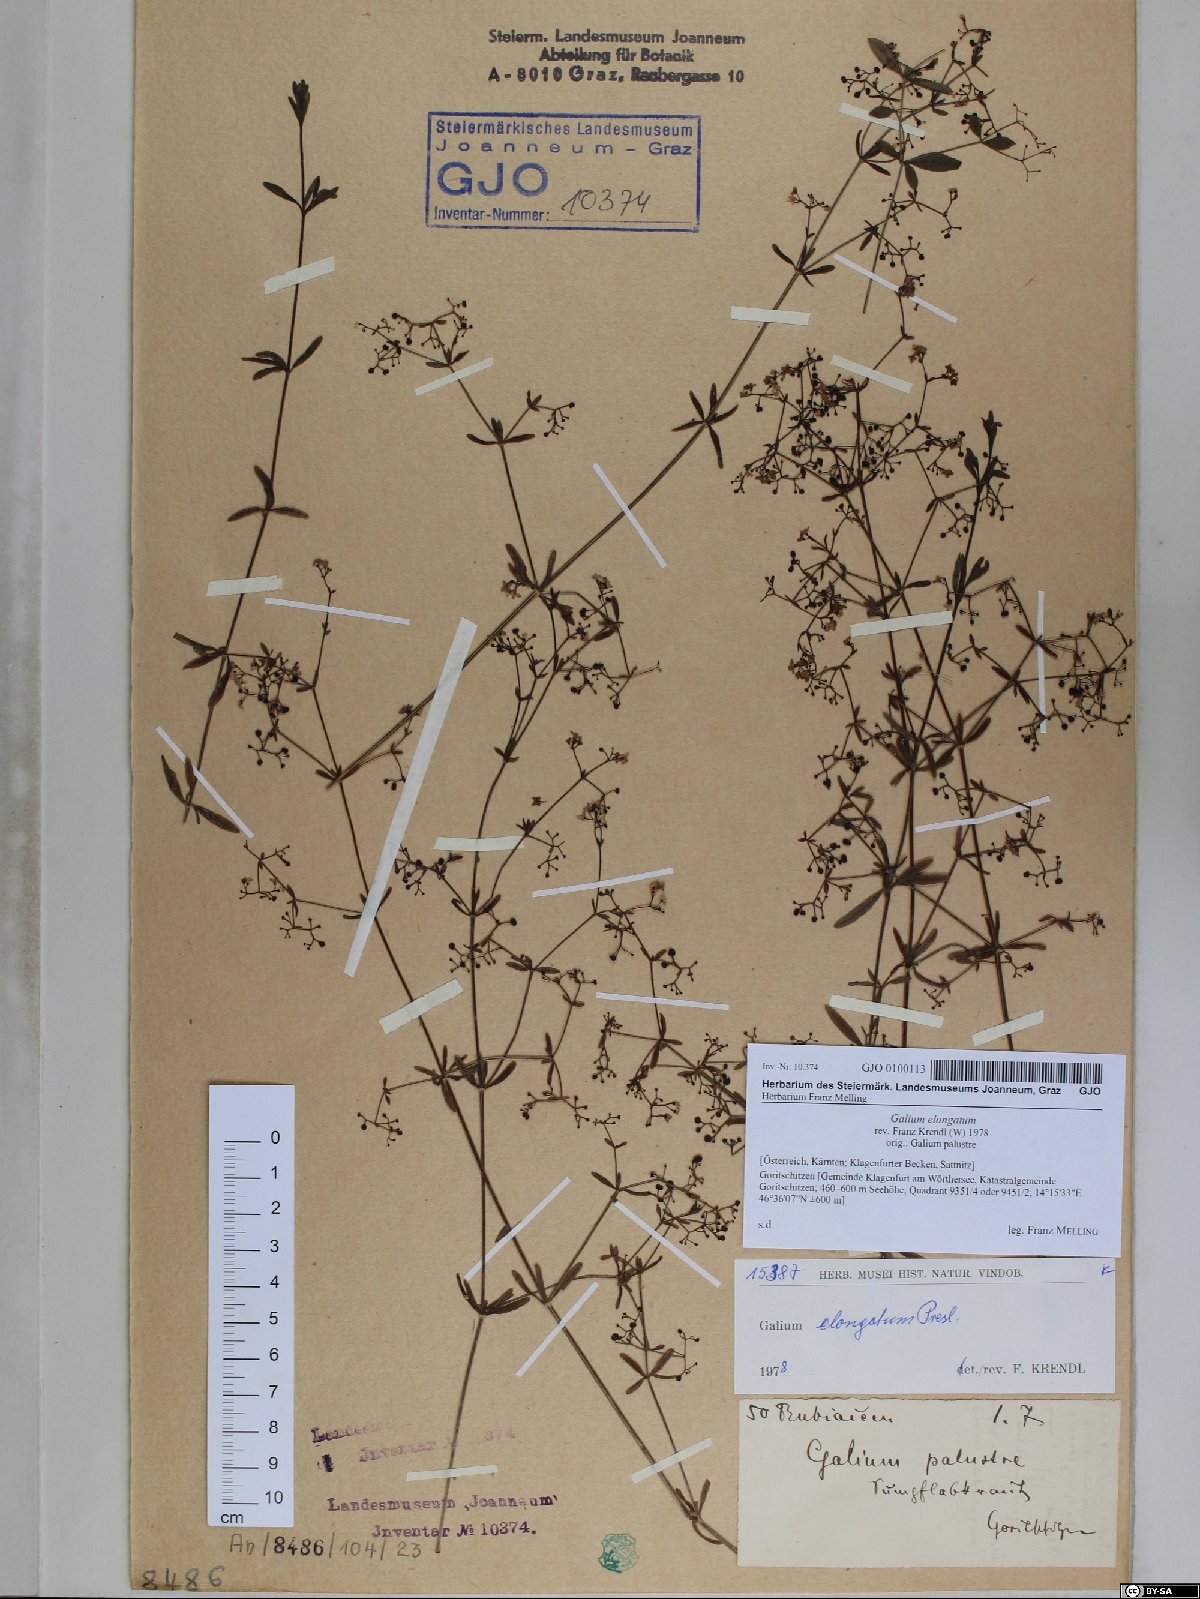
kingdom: Plantae
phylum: Tracheophyta
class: Magnoliopsida
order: Gentianales
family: Rubiaceae
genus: Galium
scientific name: Galium elongatum
